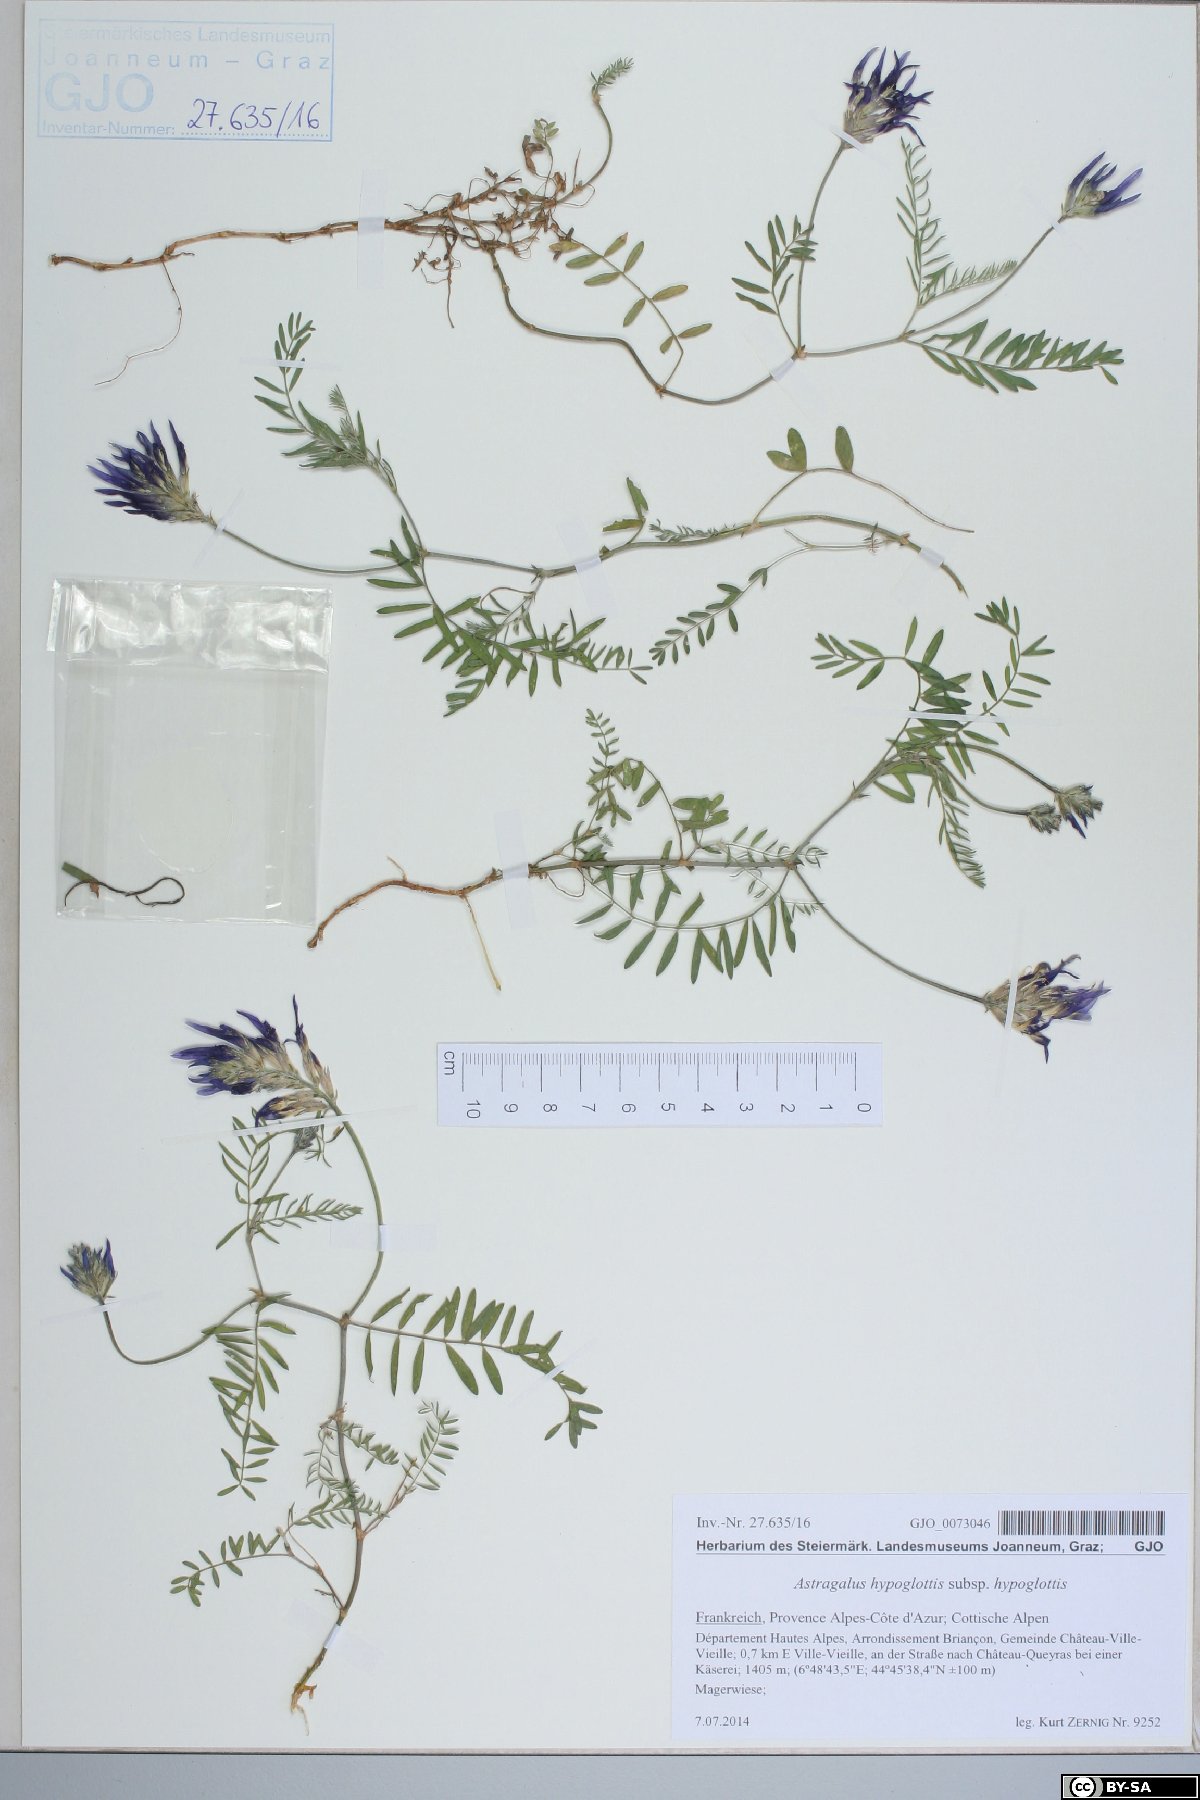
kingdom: Plantae
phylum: Tracheophyta
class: Magnoliopsida
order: Fabales
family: Fabaceae
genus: Astragalus
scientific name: Astragalus hypoglottis
